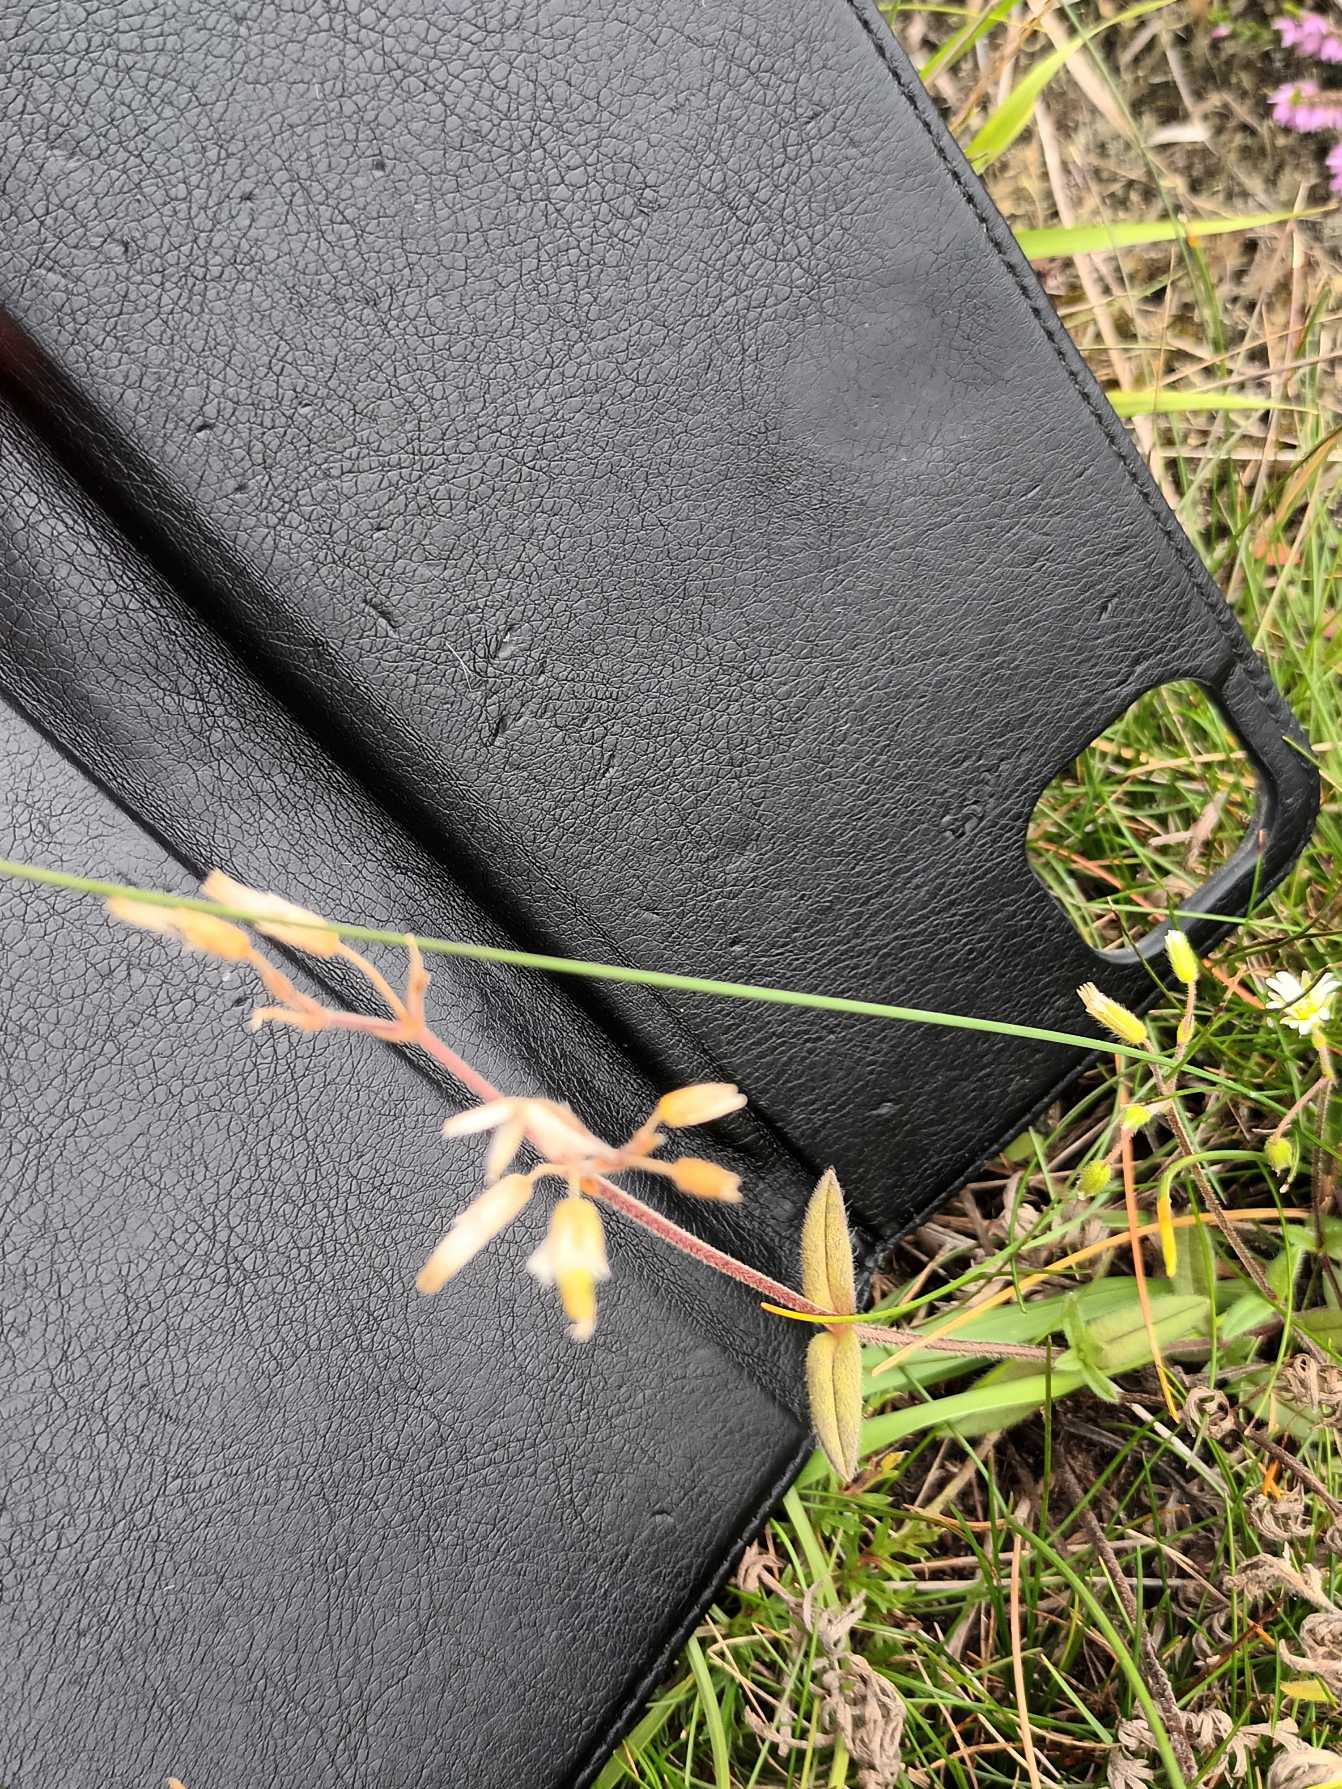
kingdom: Plantae
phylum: Tracheophyta
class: Magnoliopsida
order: Caryophyllales
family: Caryophyllaceae
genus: Cerastium
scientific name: Cerastium fontanum
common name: Almindelig hønsetarm
